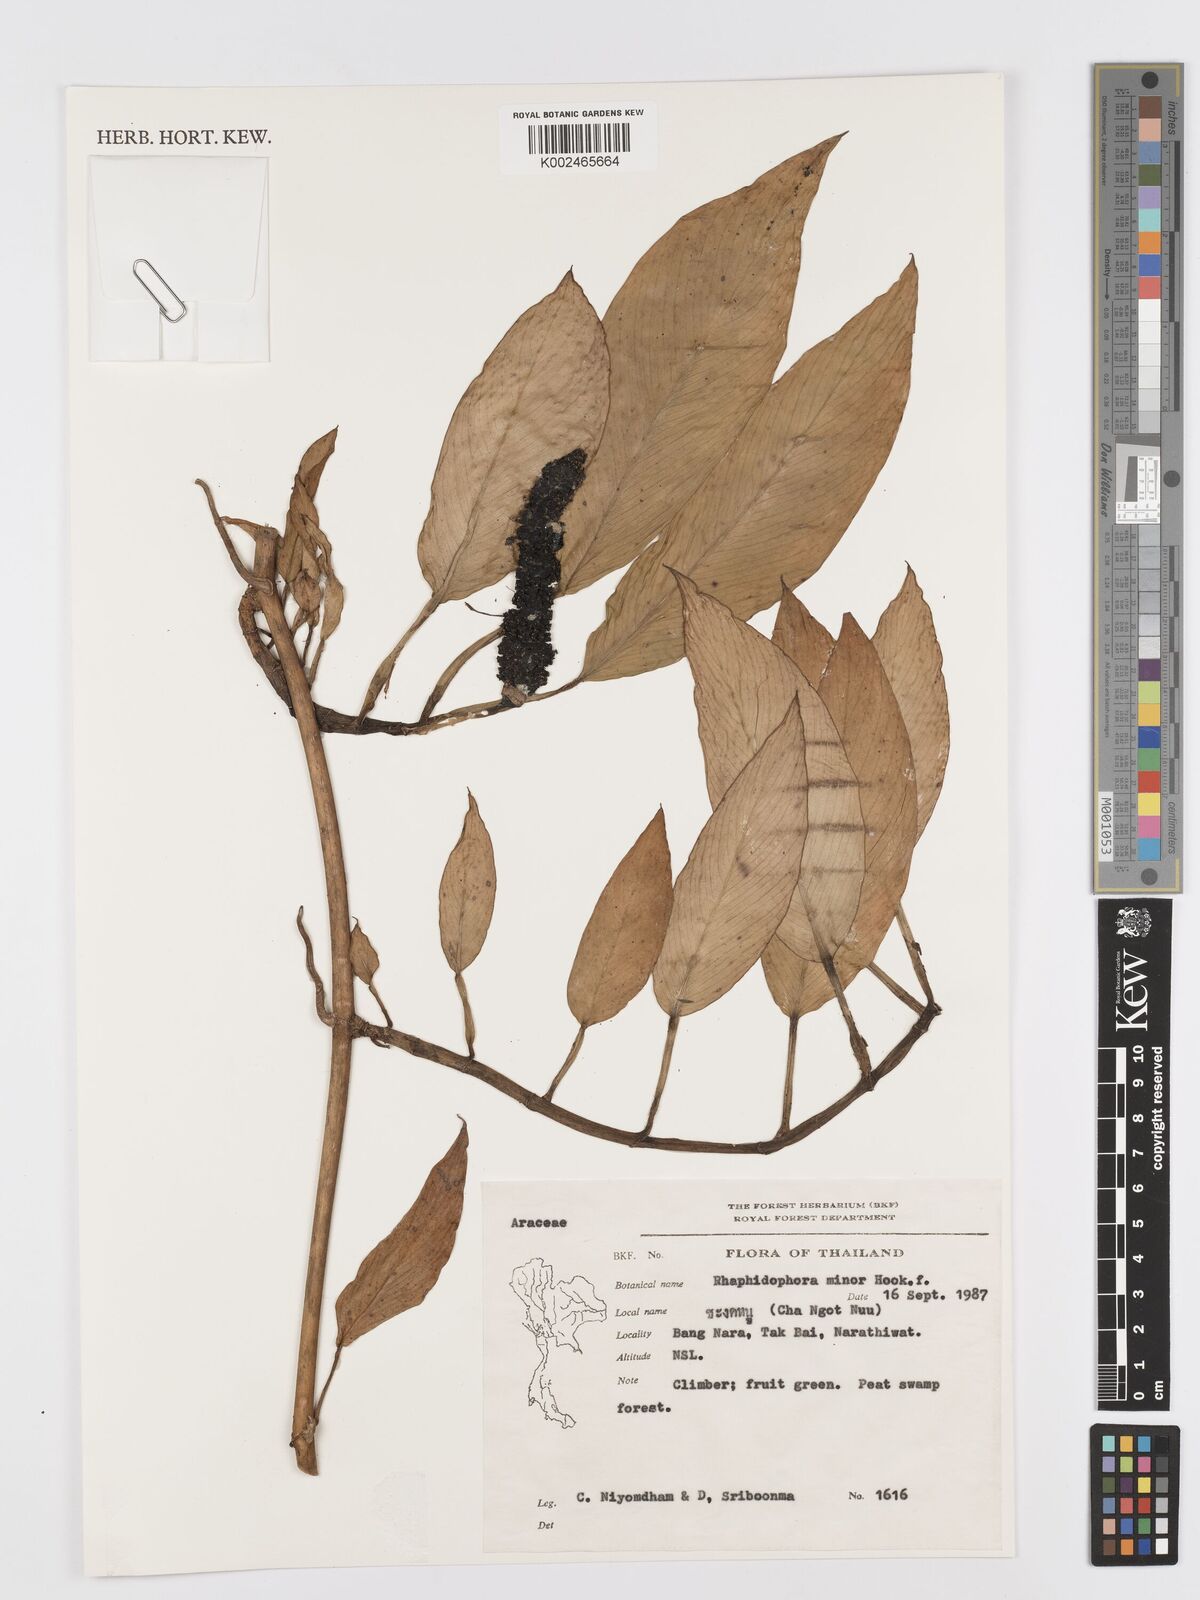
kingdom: Plantae
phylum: Tracheophyta
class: Liliopsida
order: Alismatales
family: Araceae
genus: Rhaphidophora
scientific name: Rhaphidophora minor
